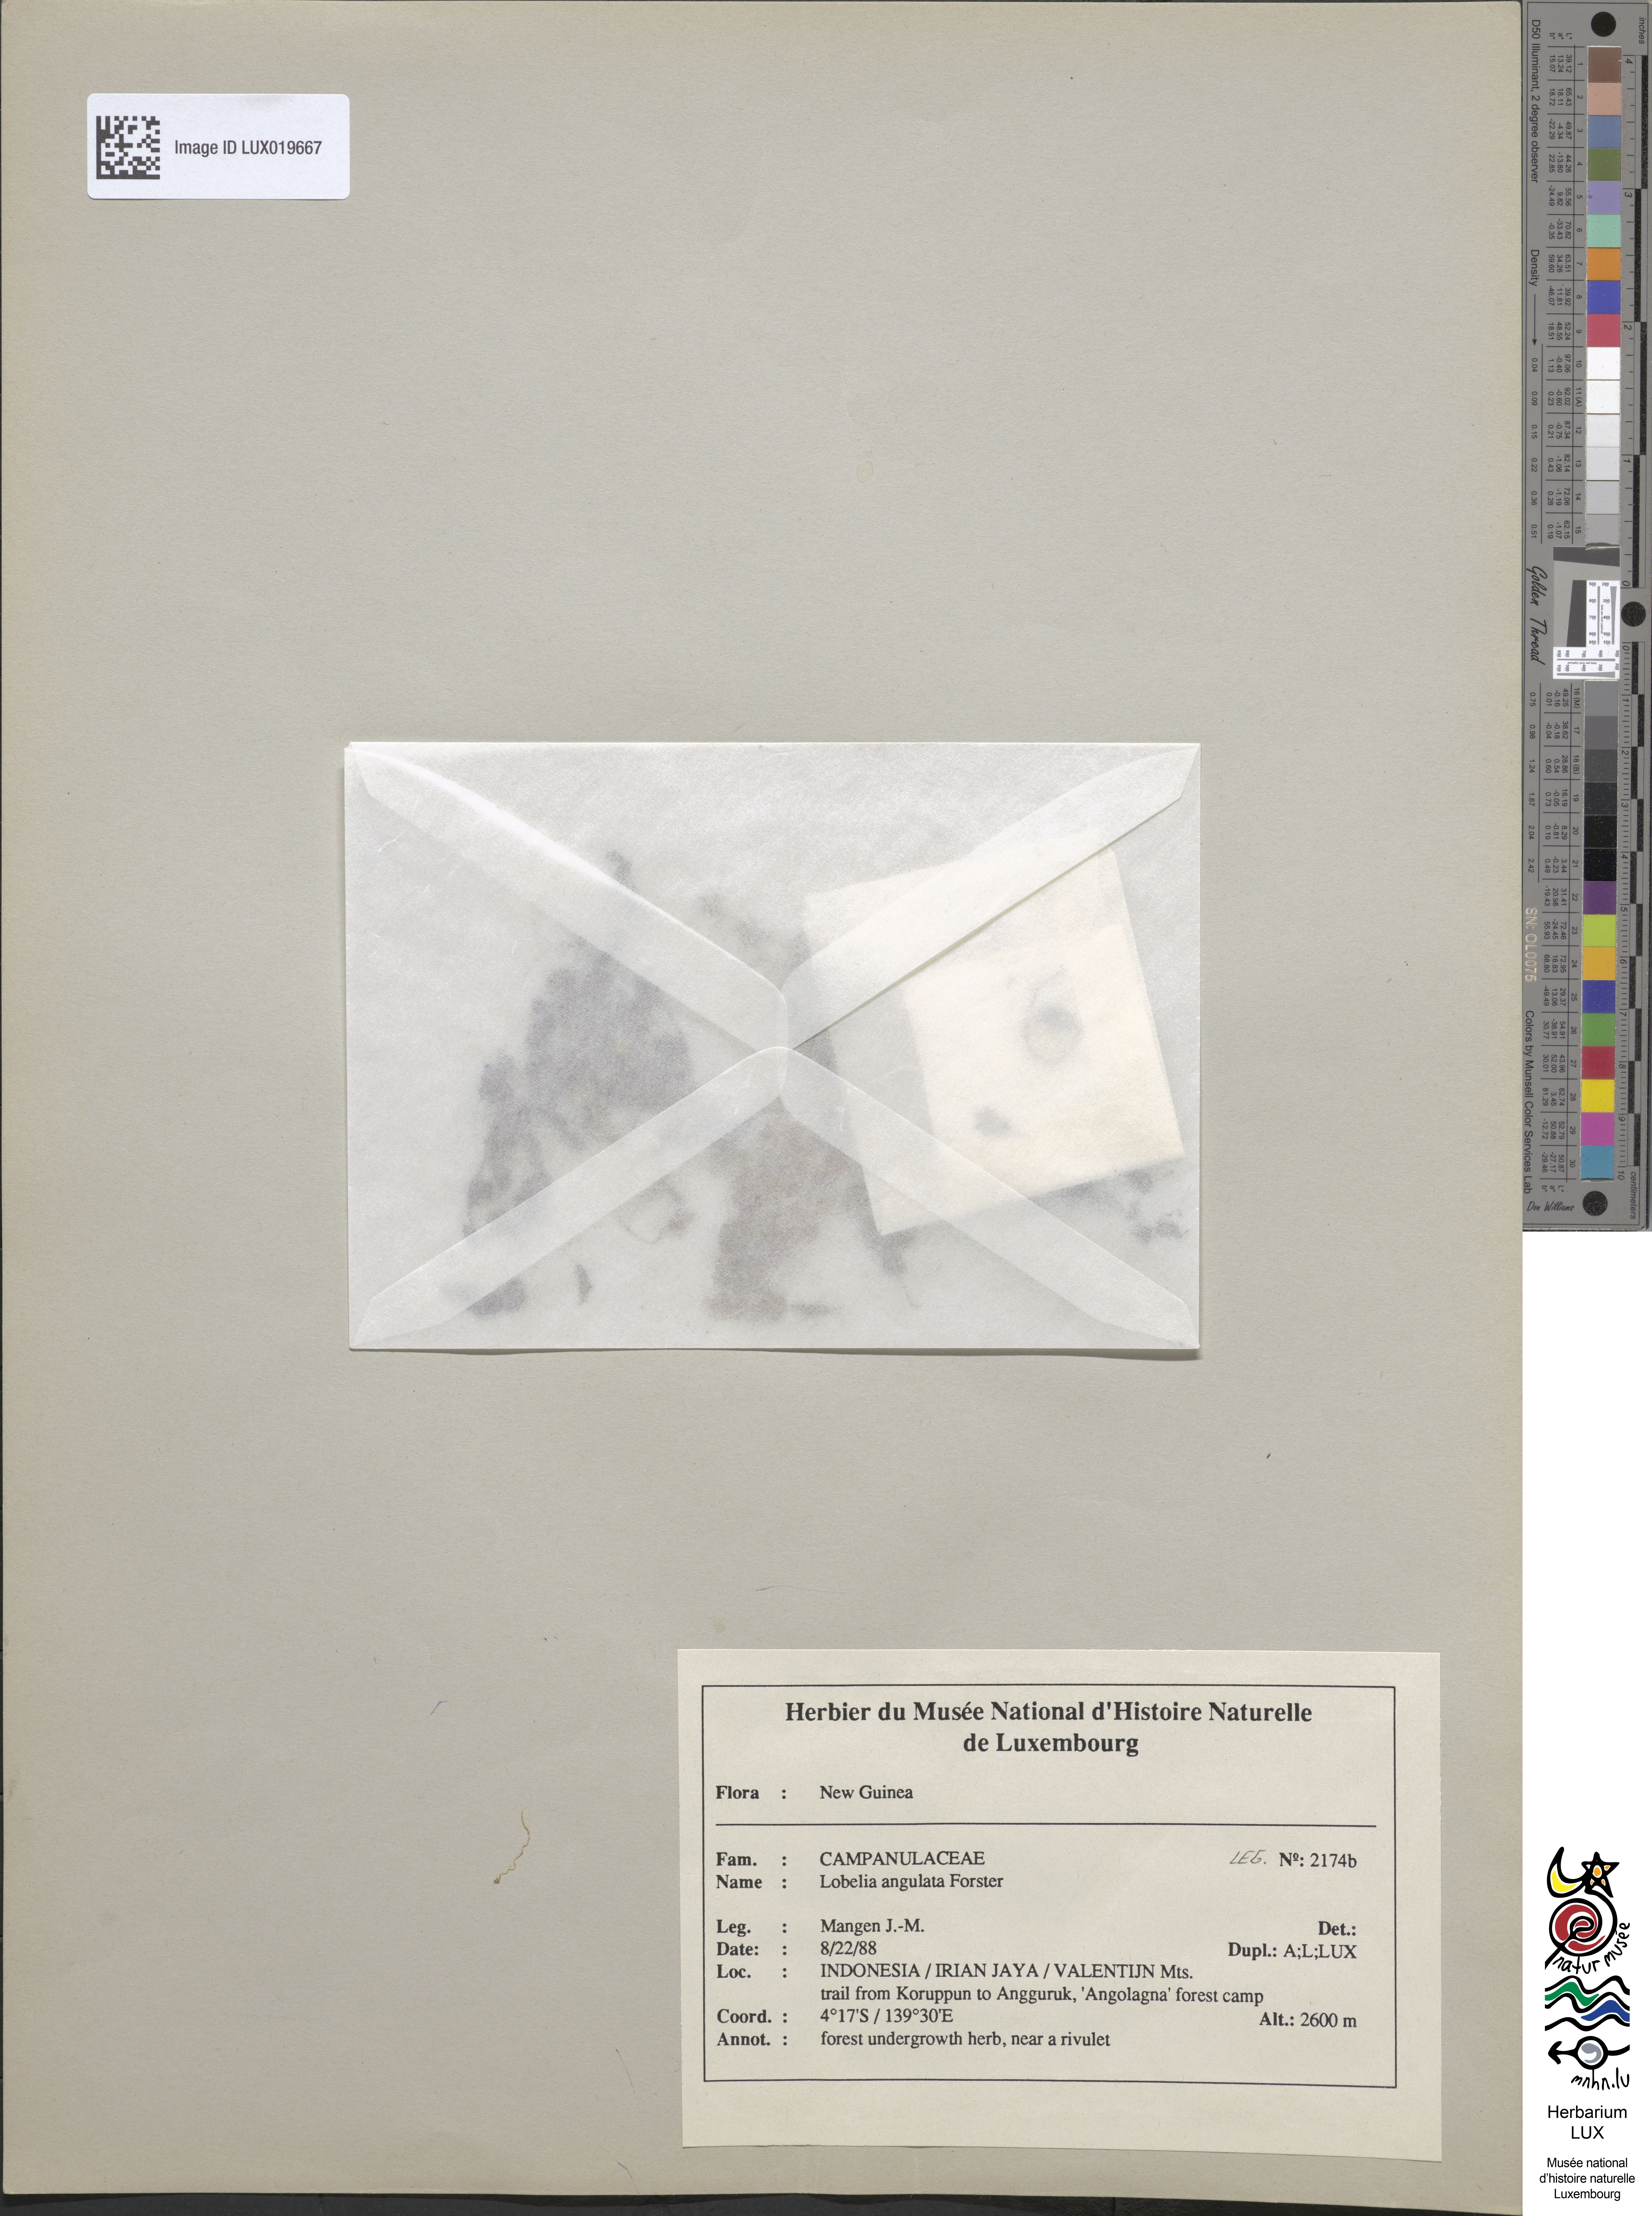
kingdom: Plantae
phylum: Tracheophyta
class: Magnoliopsida
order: Asterales
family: Campanulaceae
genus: Lobelia
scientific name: Lobelia angulata
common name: Lawn lobelia
